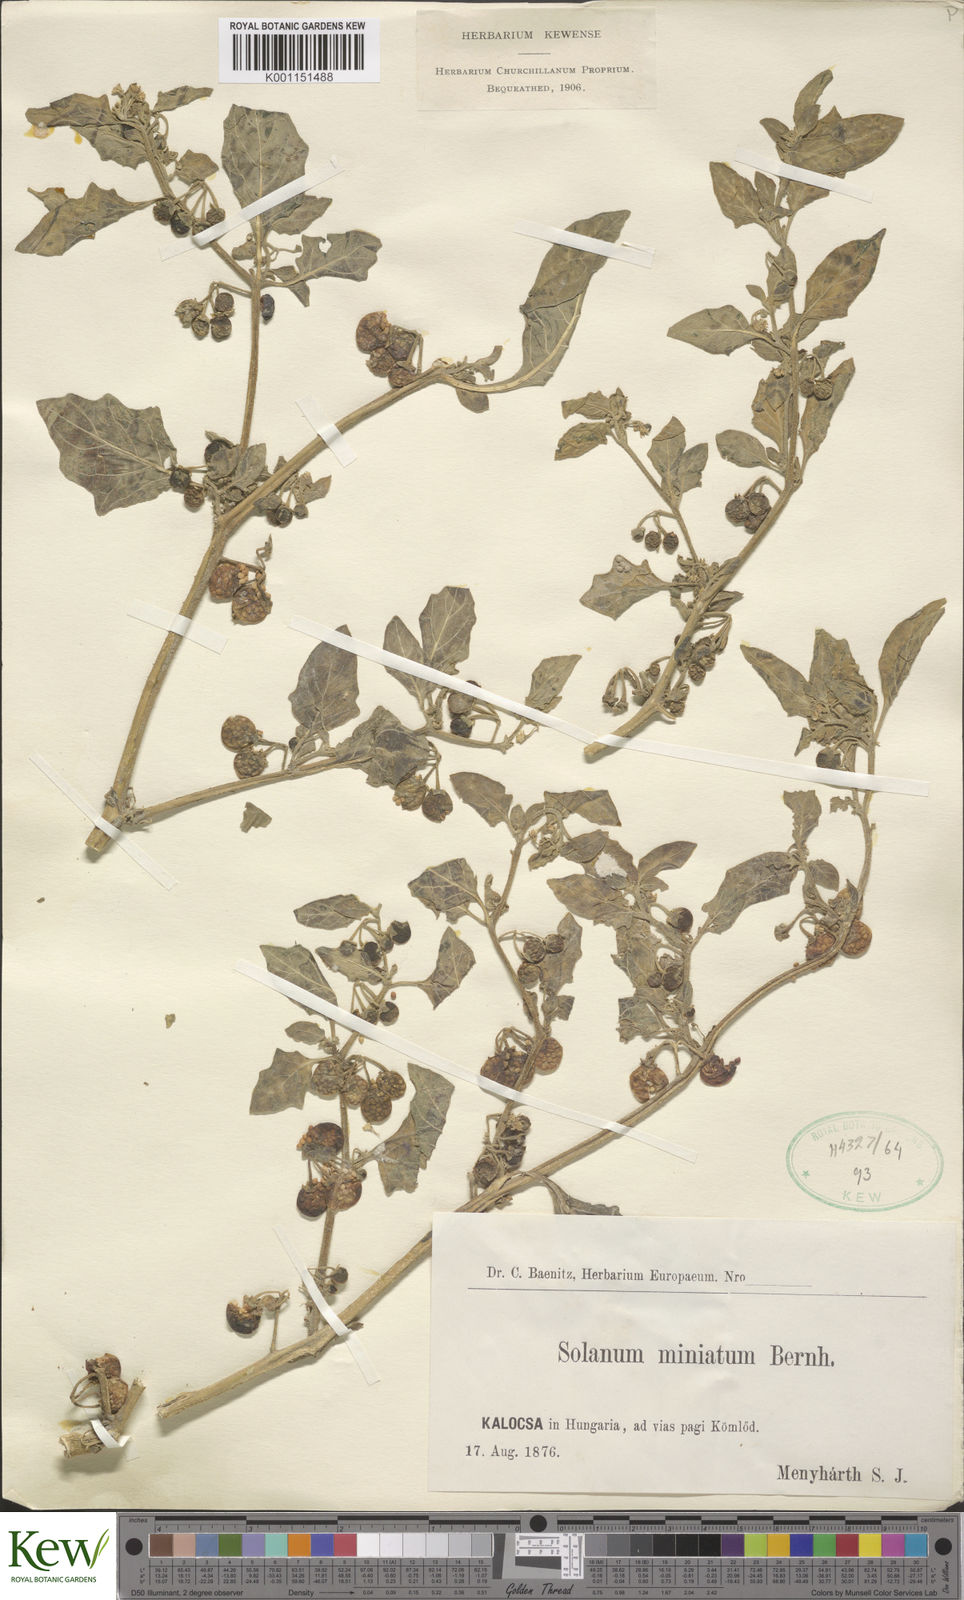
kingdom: Plantae
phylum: Tracheophyta
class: Magnoliopsida
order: Solanales
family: Solanaceae
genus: Solanum
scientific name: Solanum alatum
